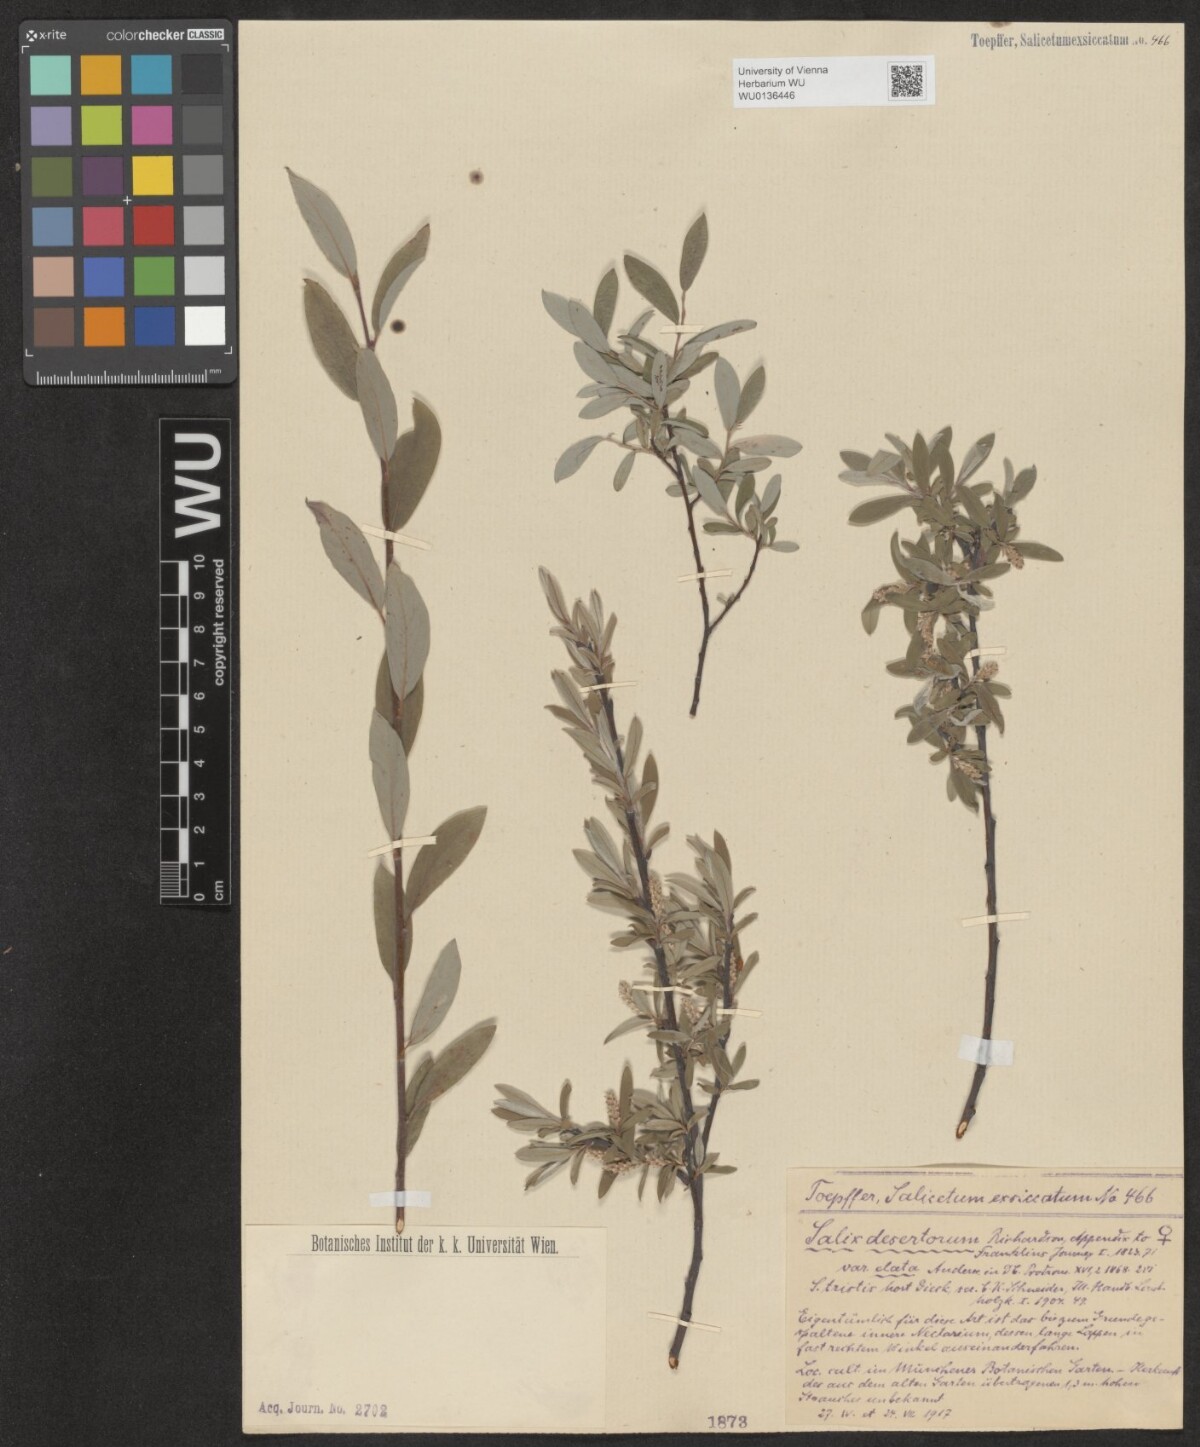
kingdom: Plantae
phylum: Tracheophyta
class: Magnoliopsida
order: Malpighiales
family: Salicaceae
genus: Salix
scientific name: Salix glauca
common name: Glaucous willow
